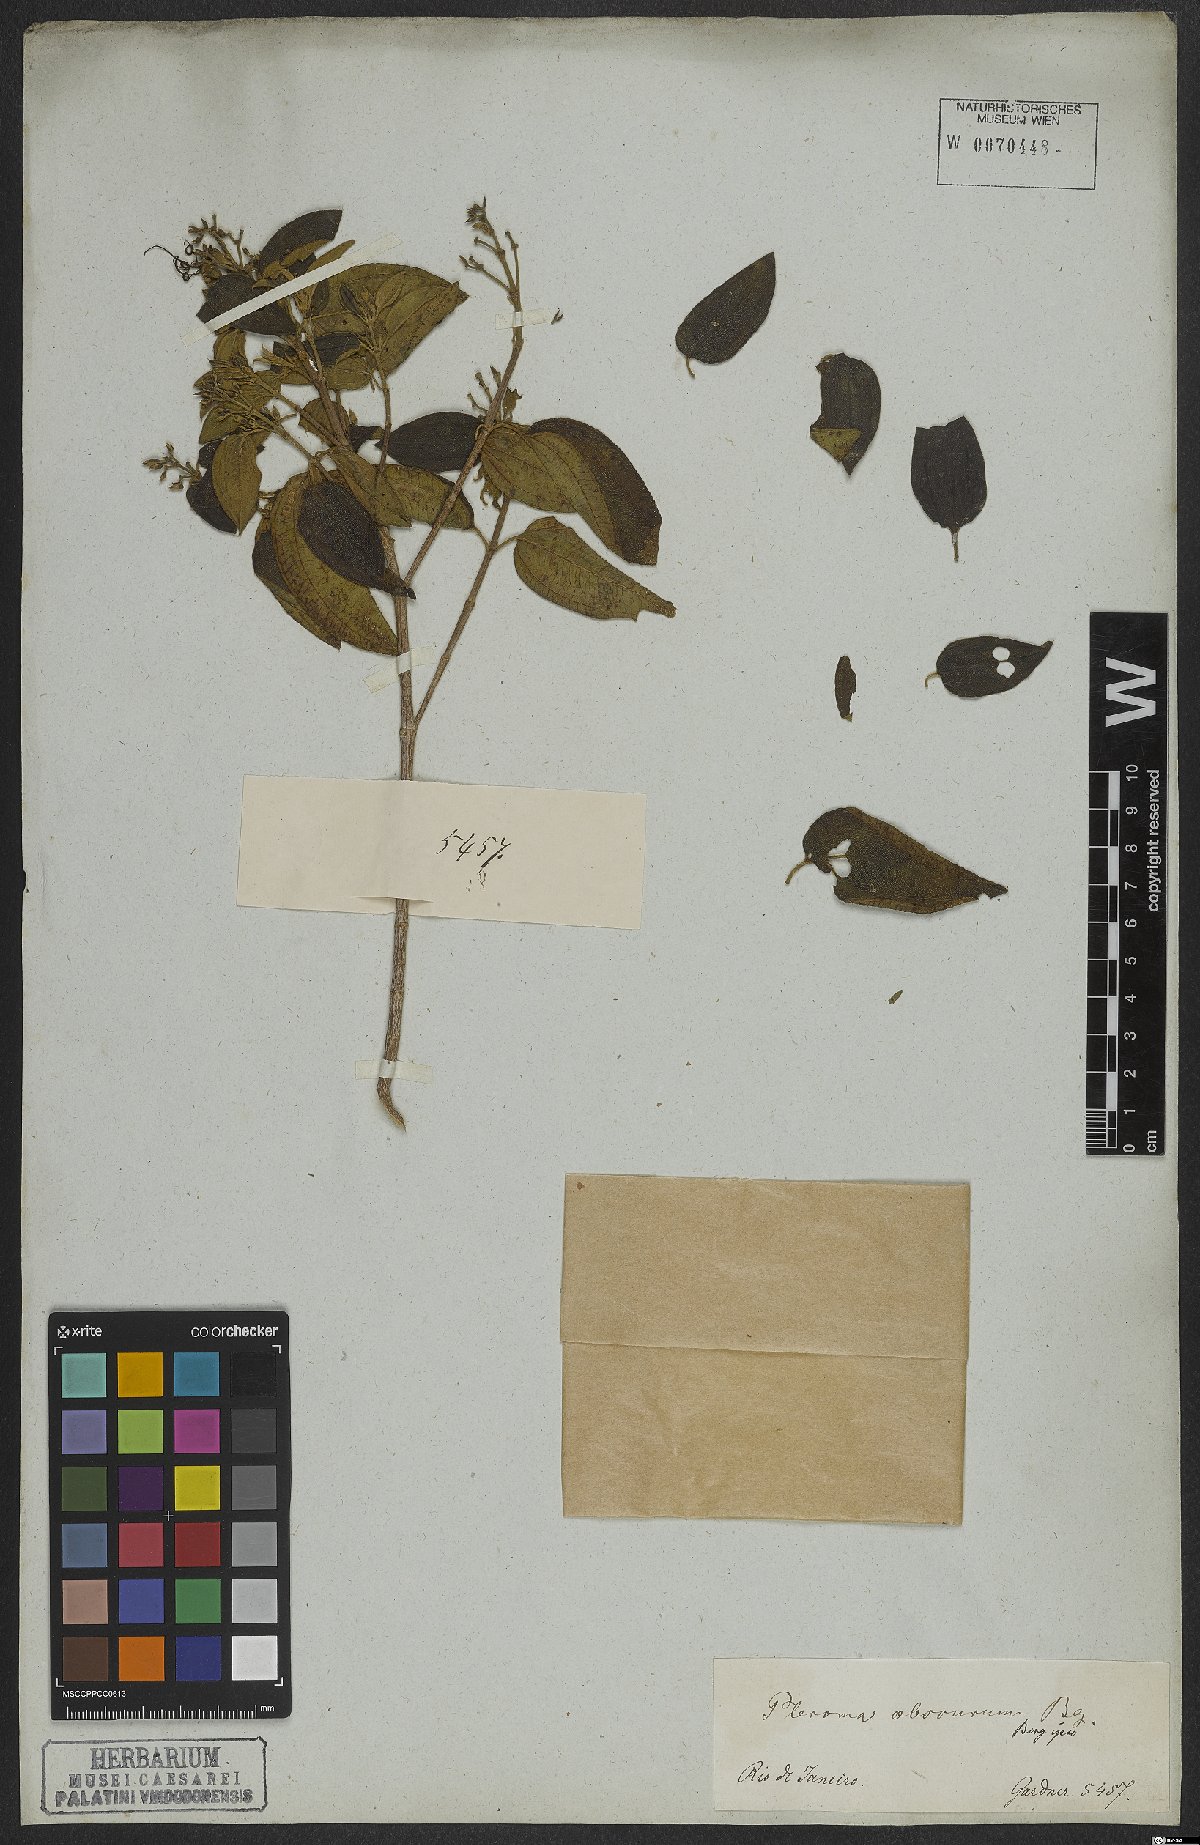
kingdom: Plantae
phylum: Tracheophyta
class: Magnoliopsida
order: Myrtales
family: Melastomataceae
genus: Pleroma
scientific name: Pleroma vimineum
